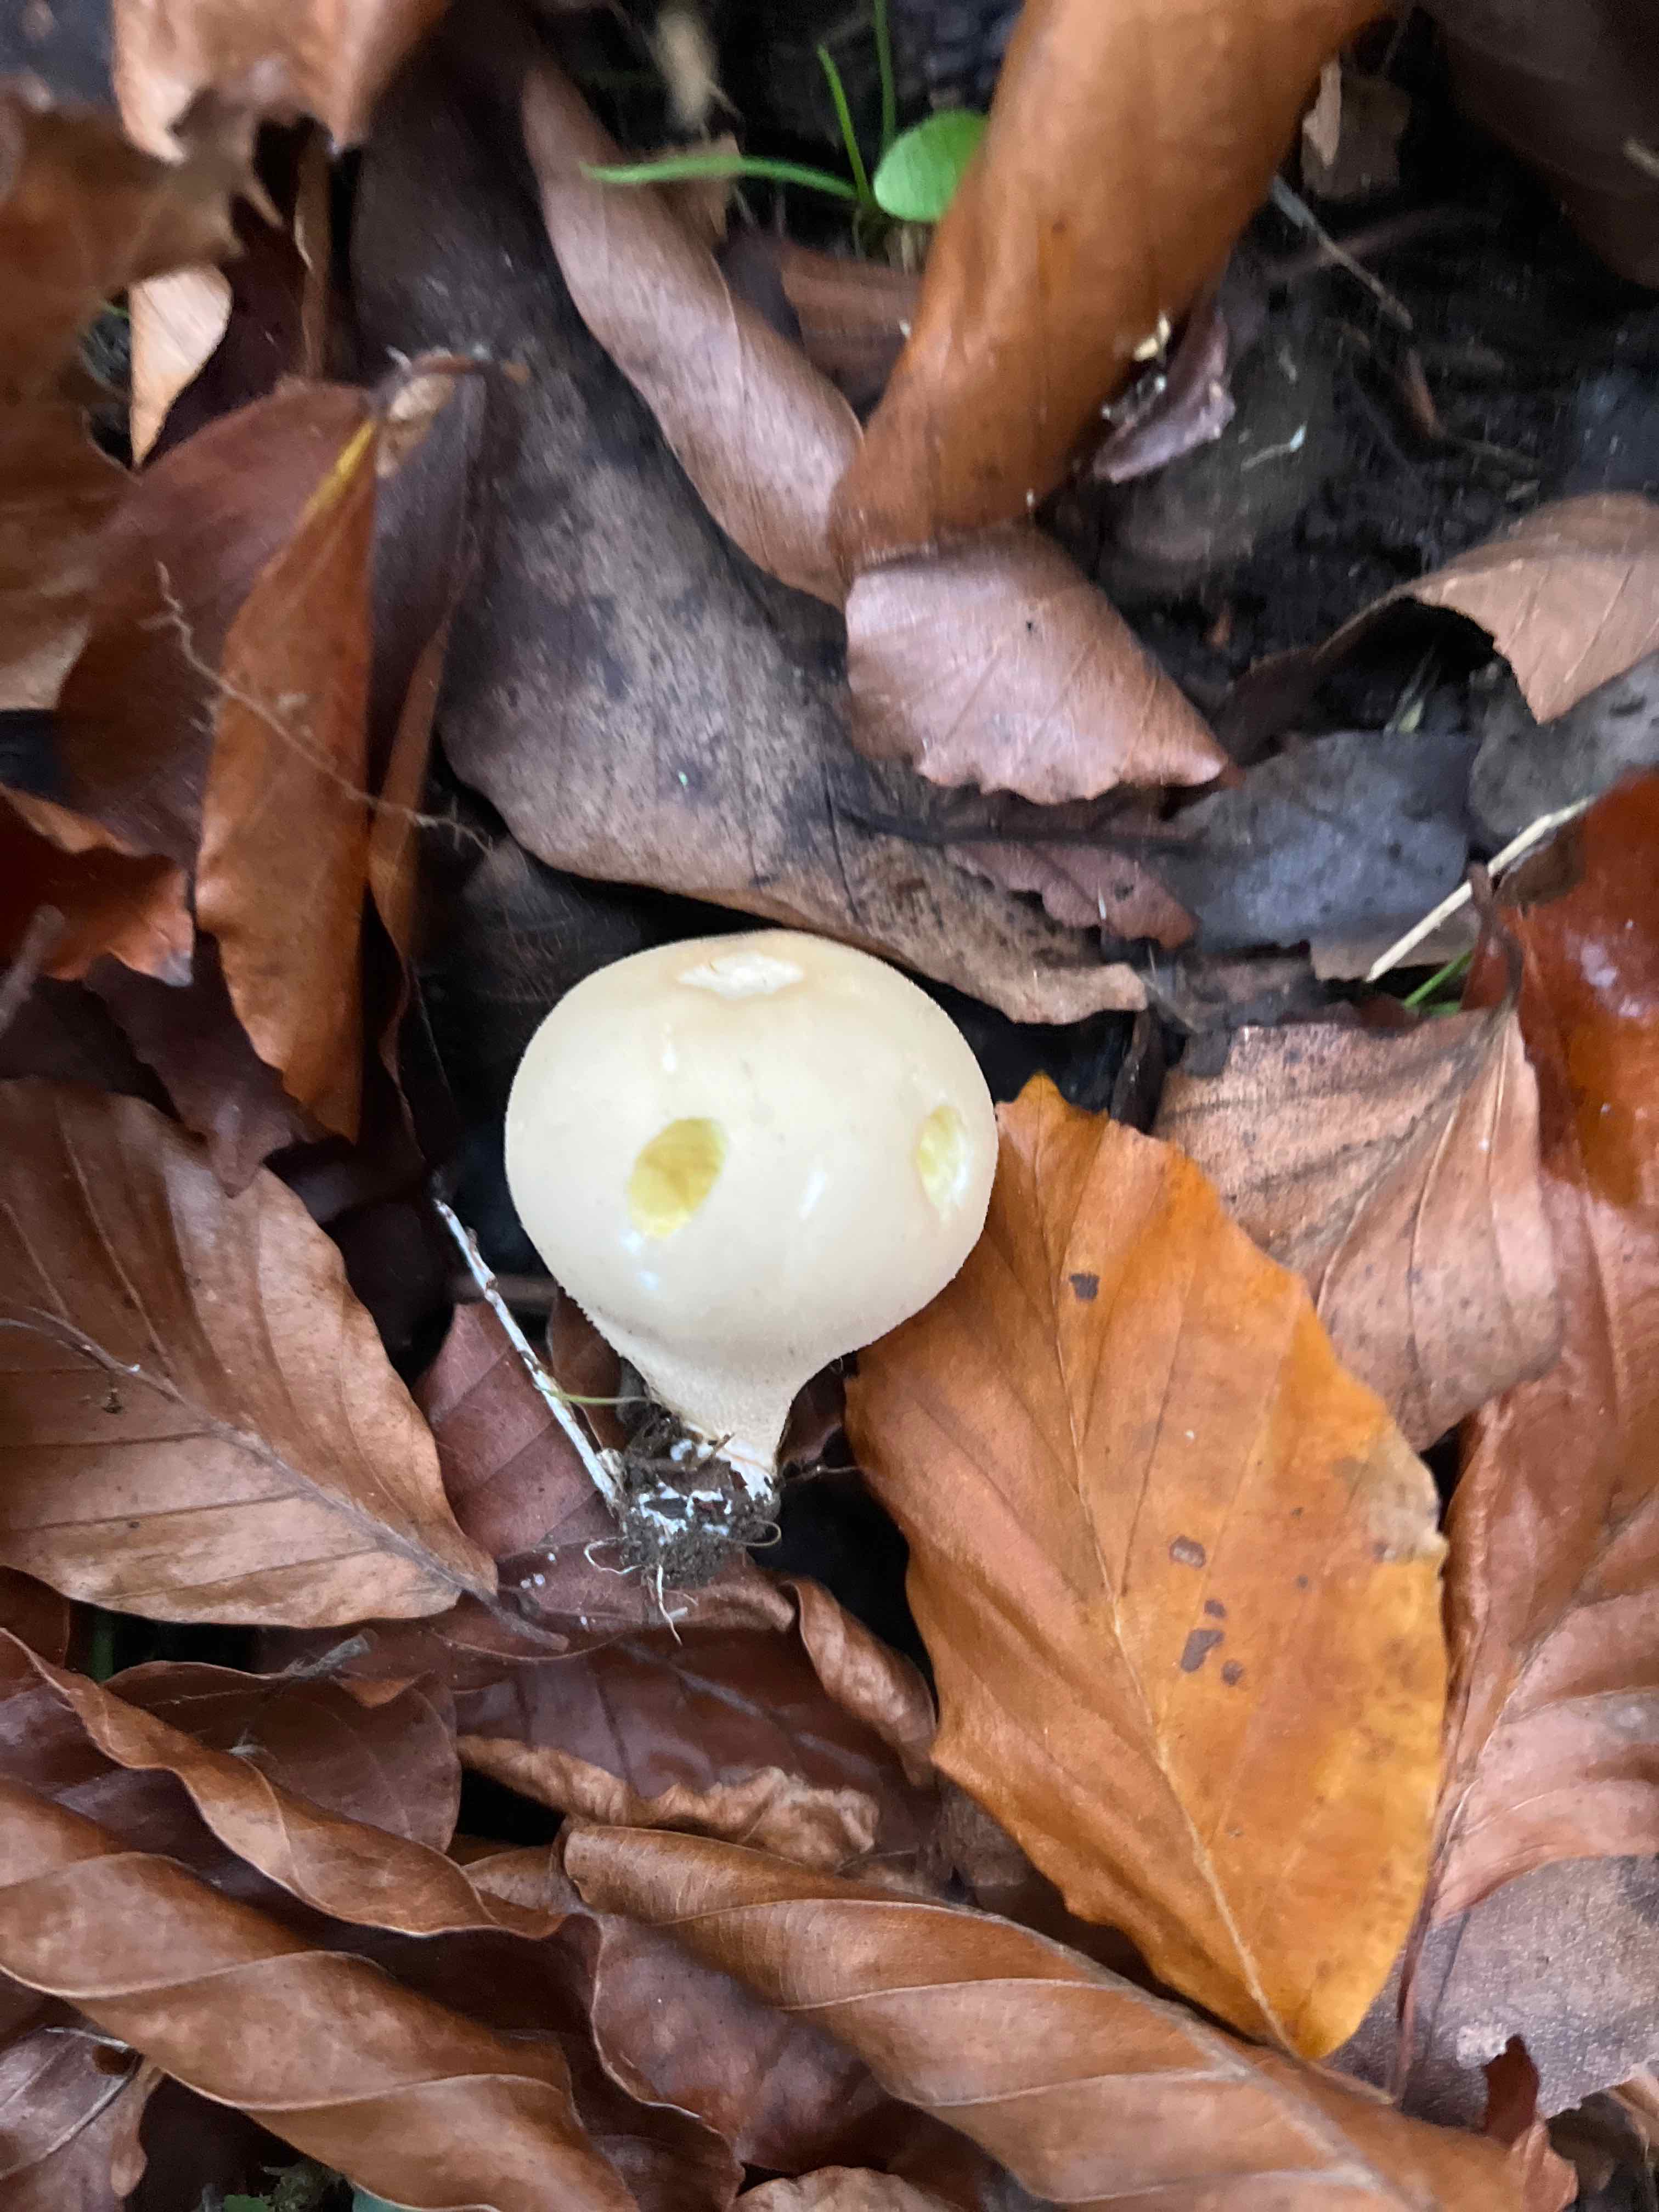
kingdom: Fungi
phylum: Basidiomycota
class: Agaricomycetes
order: Agaricales
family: Lycoperdaceae
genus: Apioperdon
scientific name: Apioperdon pyriforme
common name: pære-støvbold
